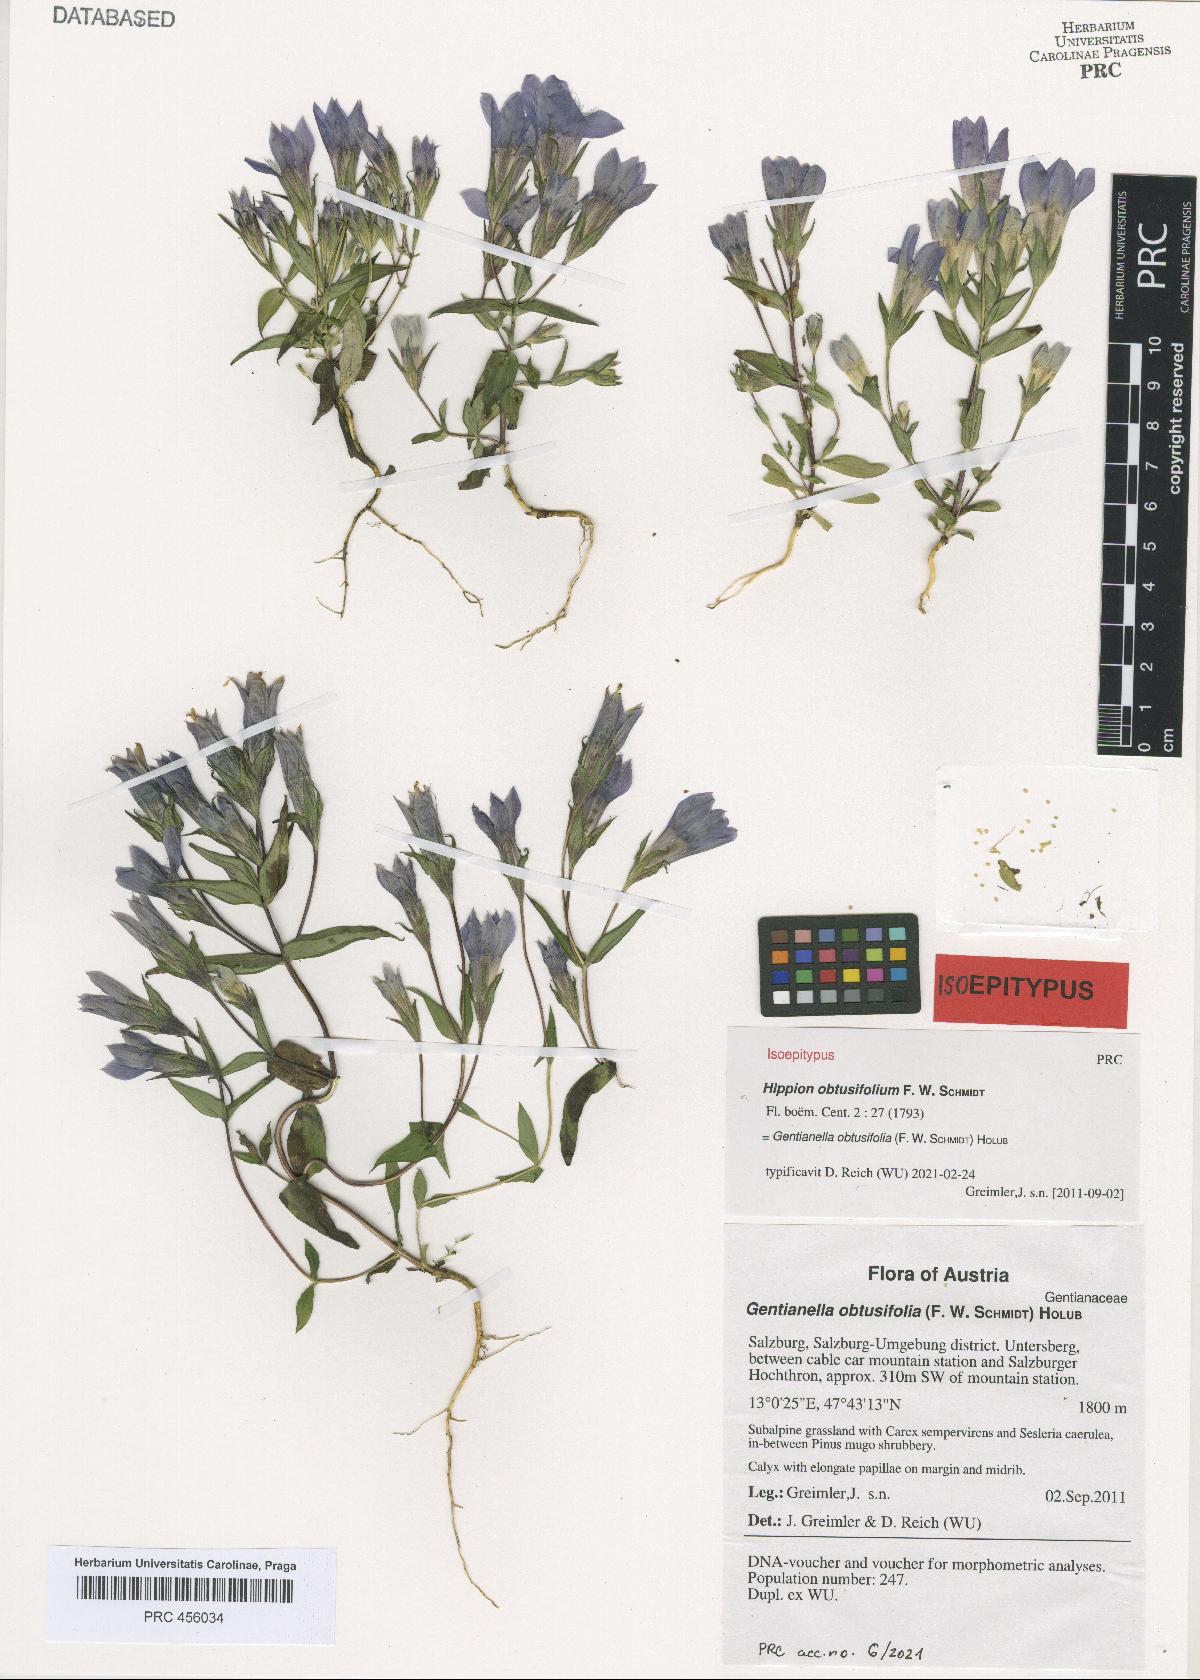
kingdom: Plantae
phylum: Tracheophyta
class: Magnoliopsida
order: Gentianales
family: Gentianaceae
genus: Gentianella
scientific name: Gentianella obtusifolia
